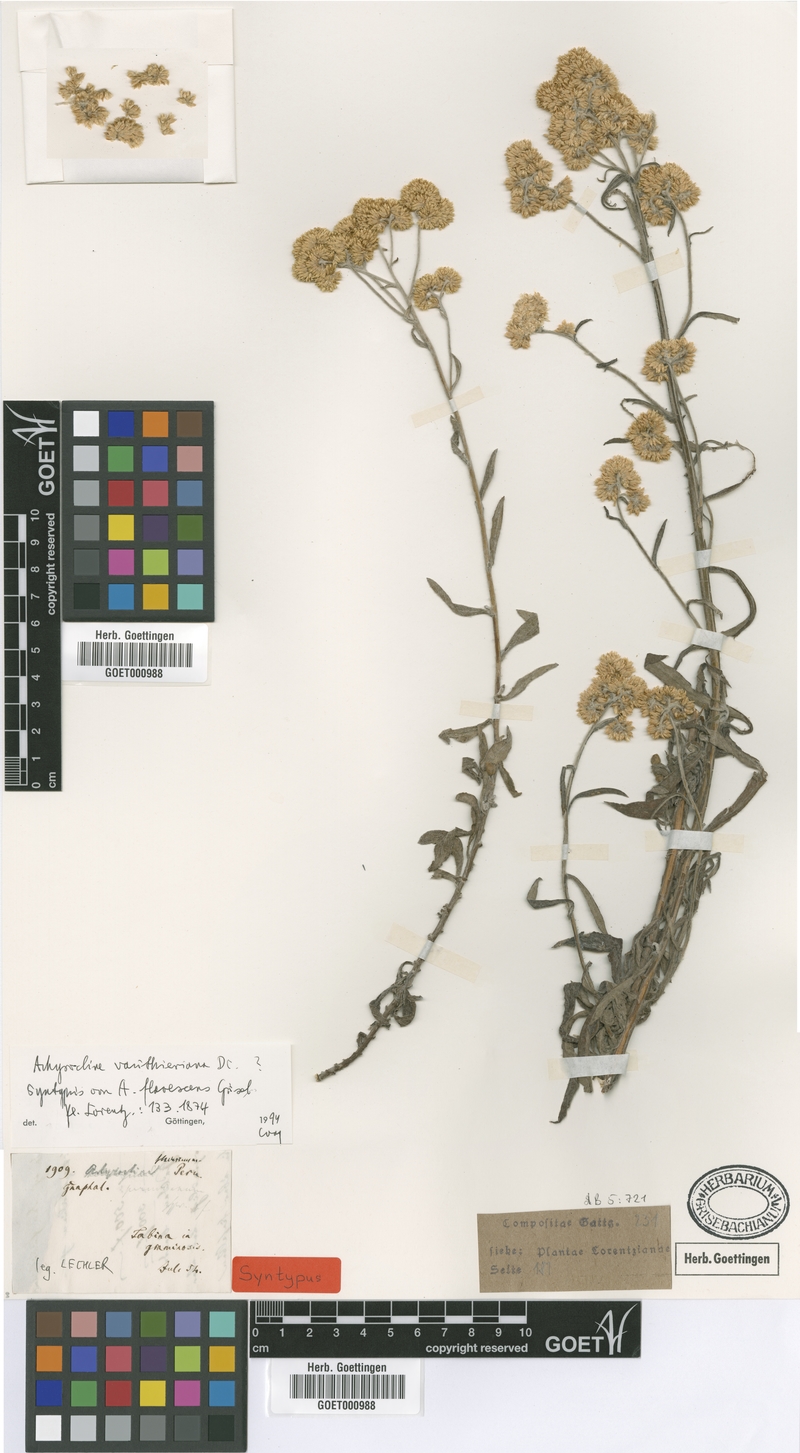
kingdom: Plantae
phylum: Tracheophyta
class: Magnoliopsida
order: Asterales
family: Asteraceae
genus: Achyrocline
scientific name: Achyrocline vauthieriana
